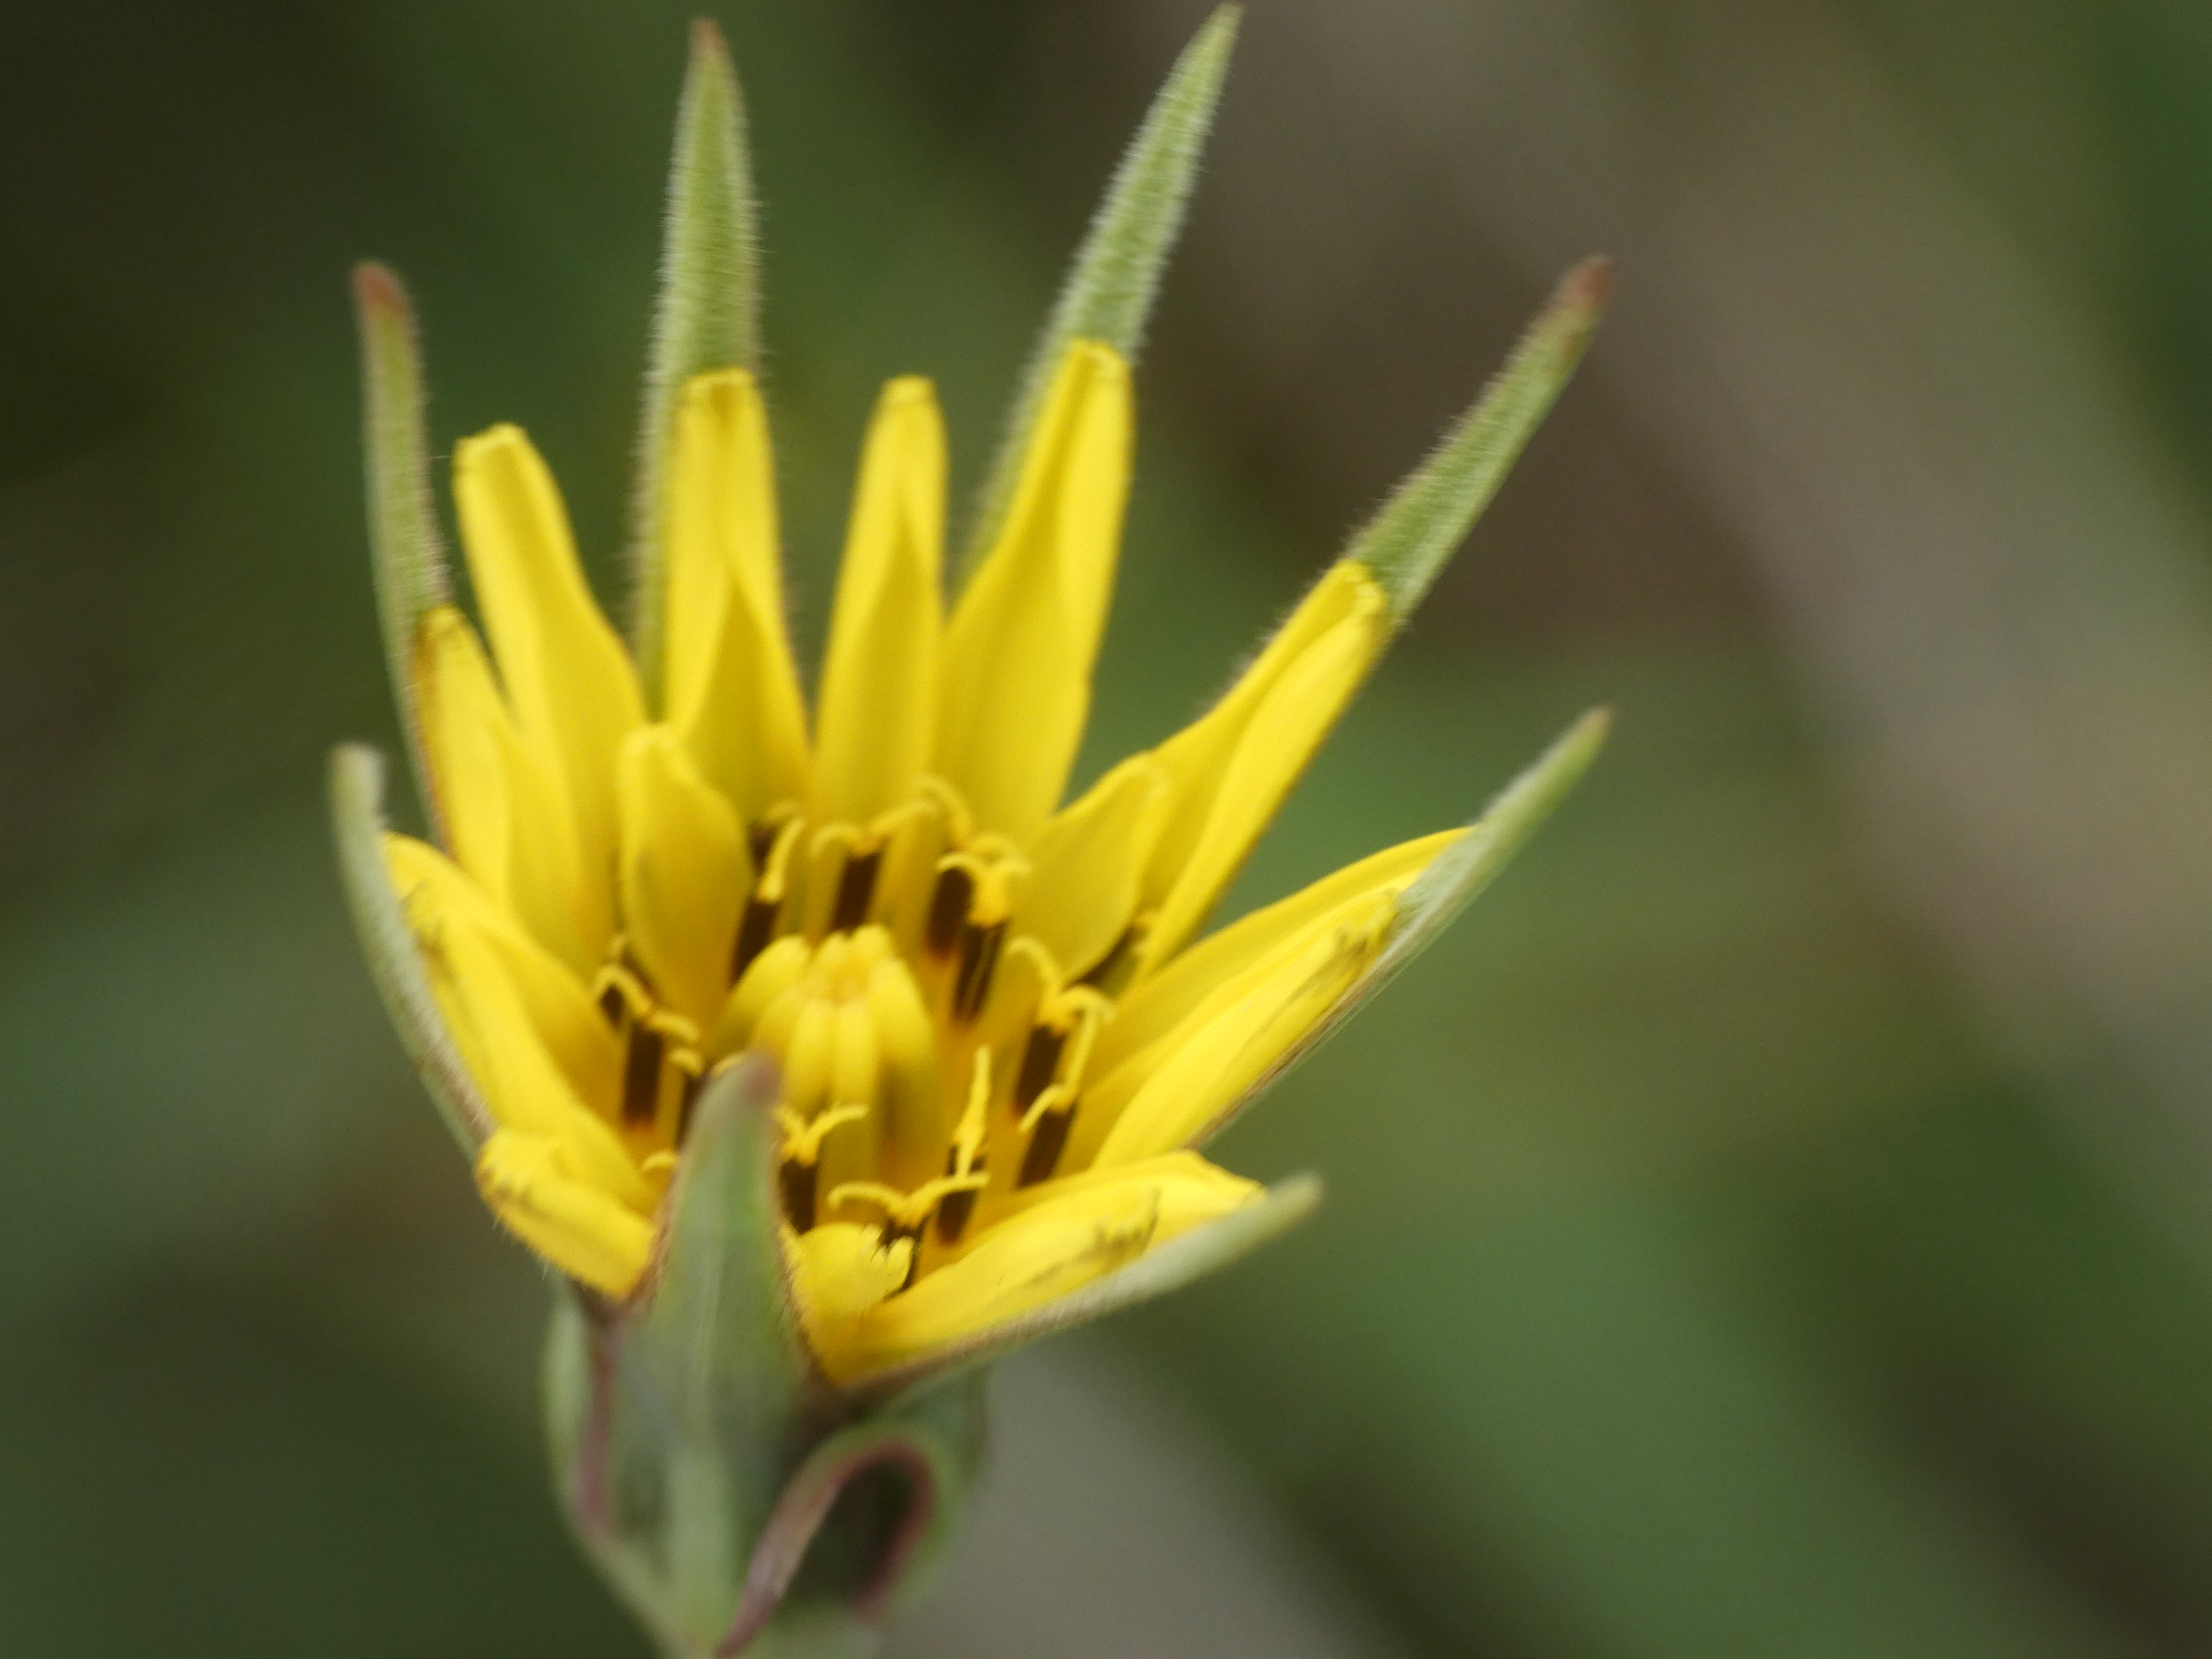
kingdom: Plantae
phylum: Tracheophyta
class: Magnoliopsida
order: Asterales
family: Asteraceae
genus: Tragopogon
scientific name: Tragopogon minor
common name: Småkronet gedeskæg
